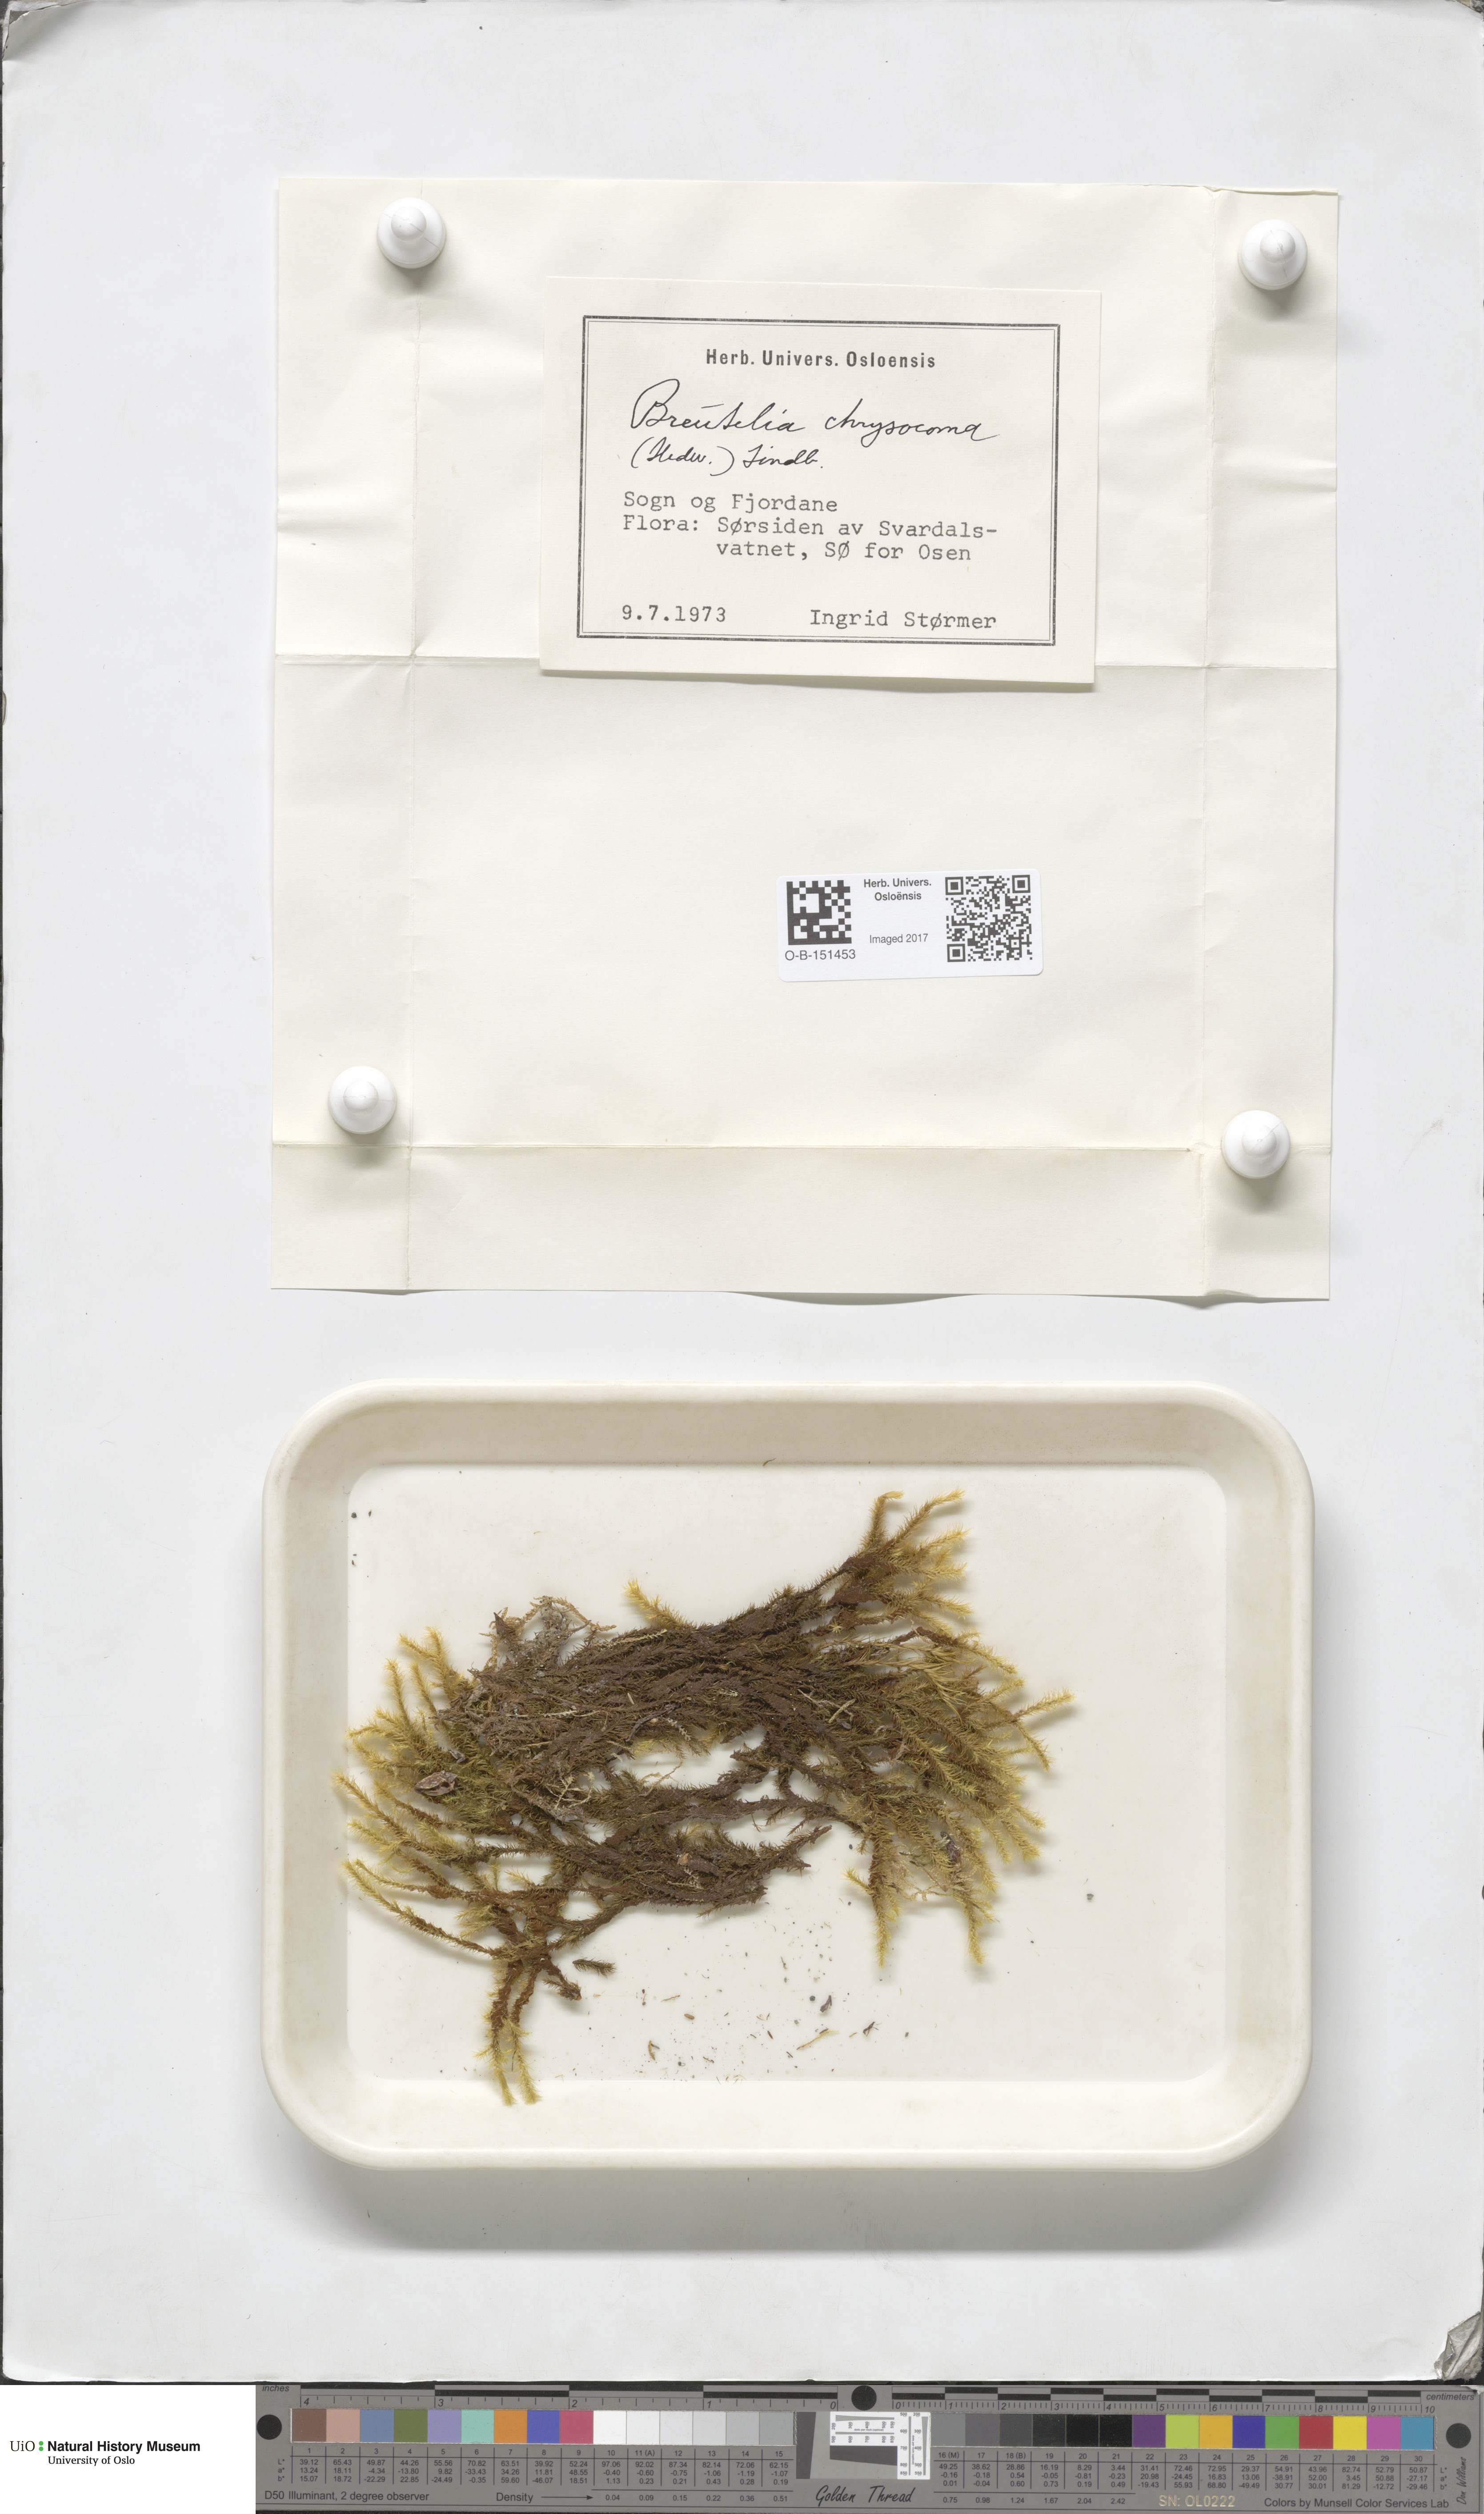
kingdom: Plantae
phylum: Bryophyta
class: Bryopsida
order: Bartramiales
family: Bartramiaceae
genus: Breutelia
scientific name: Breutelia chrysocoma
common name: Bottle-brush moss
